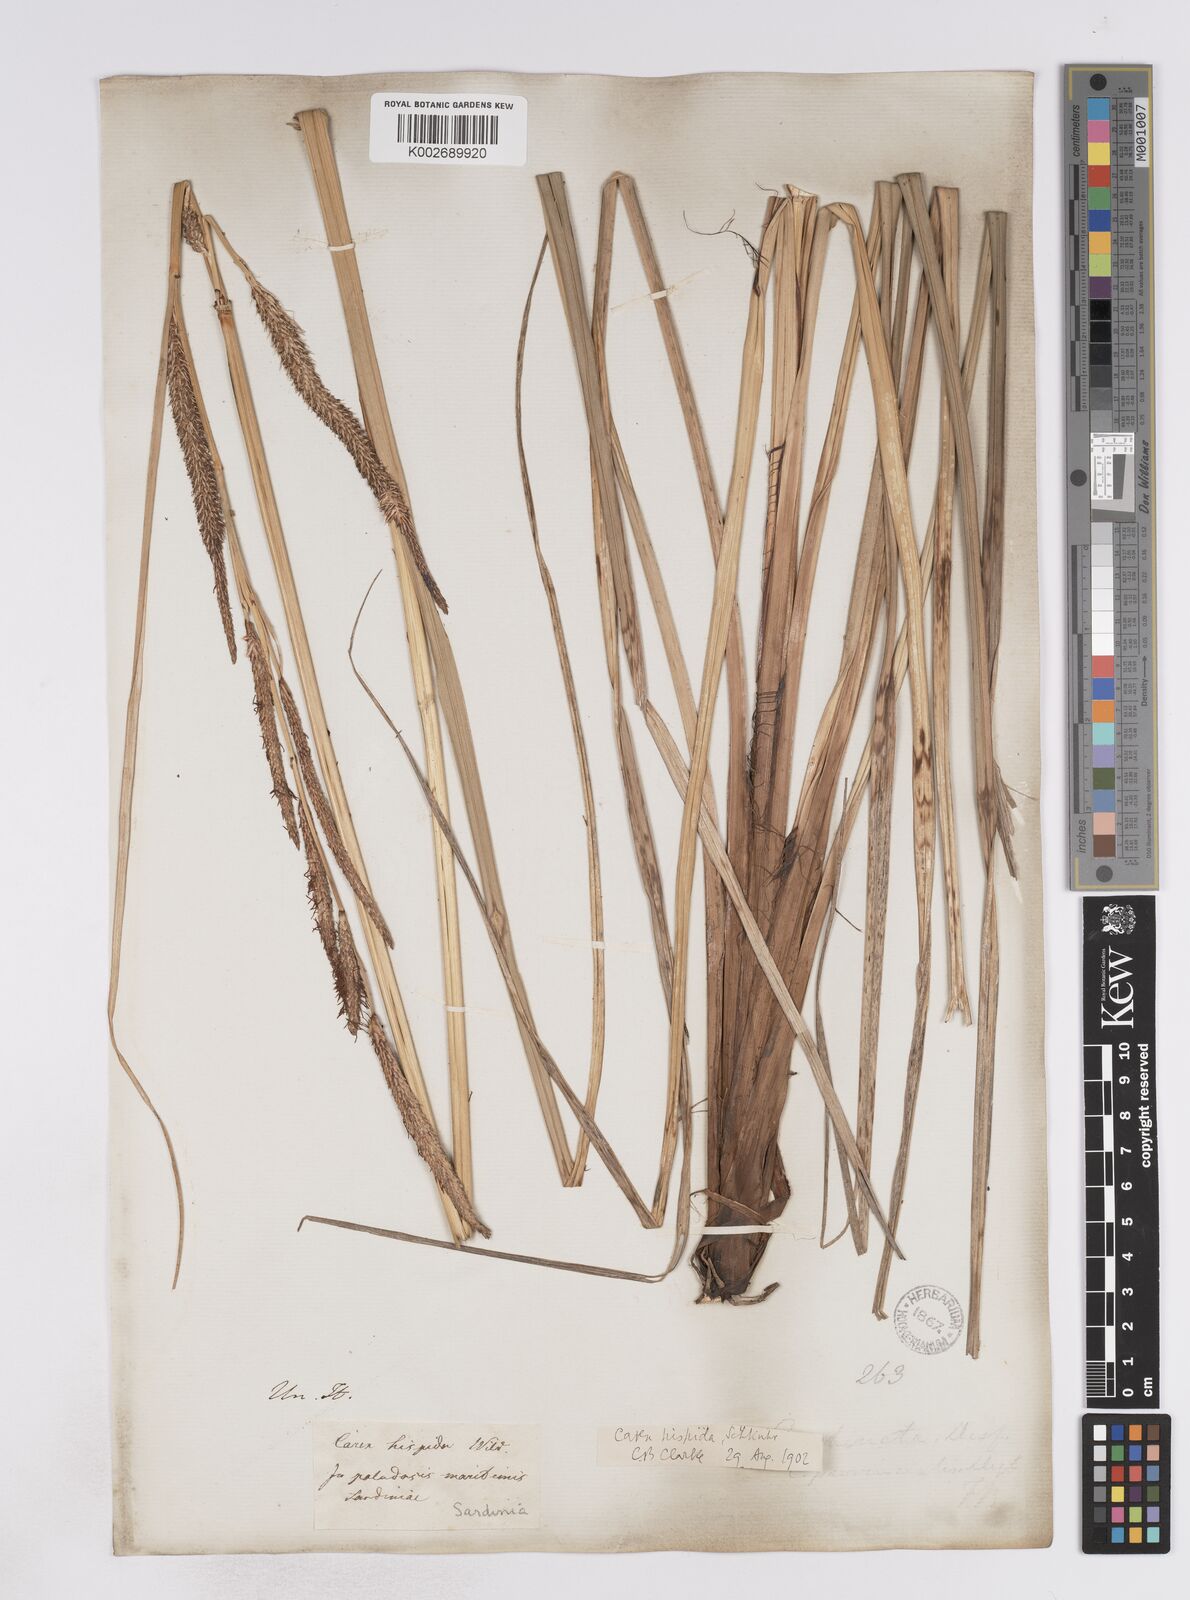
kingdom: Plantae
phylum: Tracheophyta
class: Liliopsida
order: Poales
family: Cyperaceae
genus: Carex
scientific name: Carex hispida
